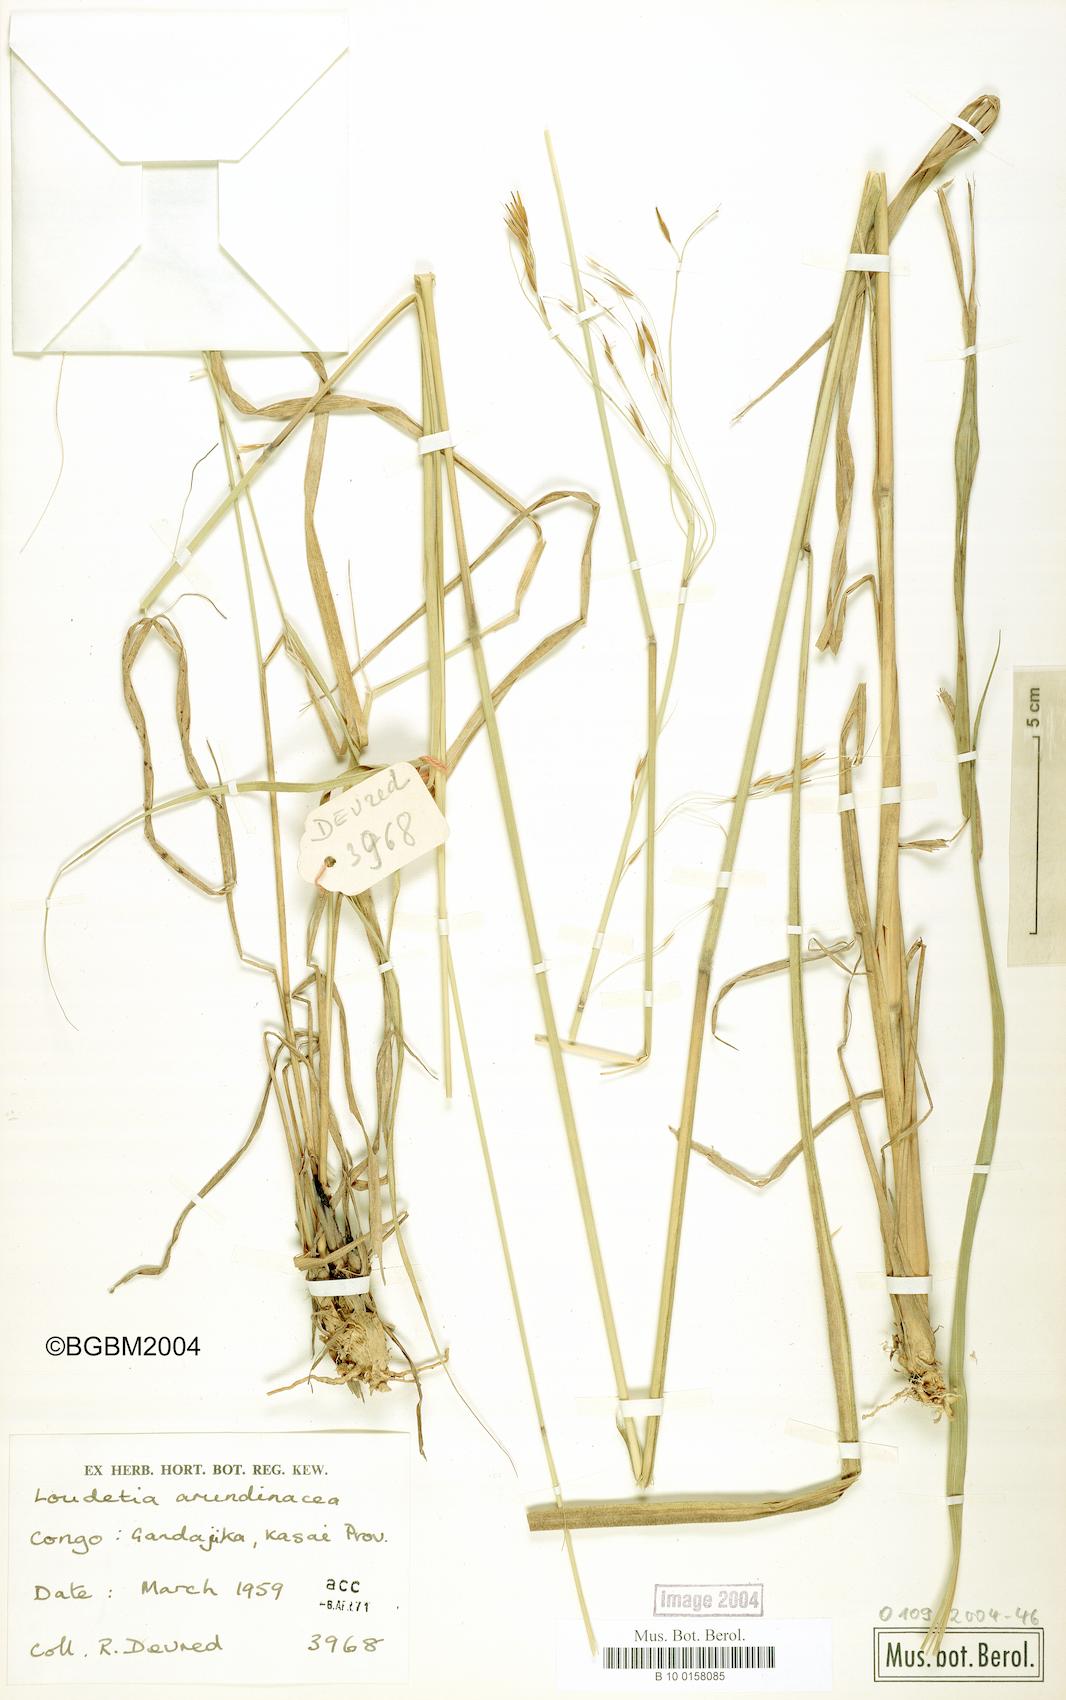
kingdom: Plantae
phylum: Tracheophyta
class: Liliopsida
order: Poales
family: Poaceae
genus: Loudetia
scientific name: Loudetia arundinacea
